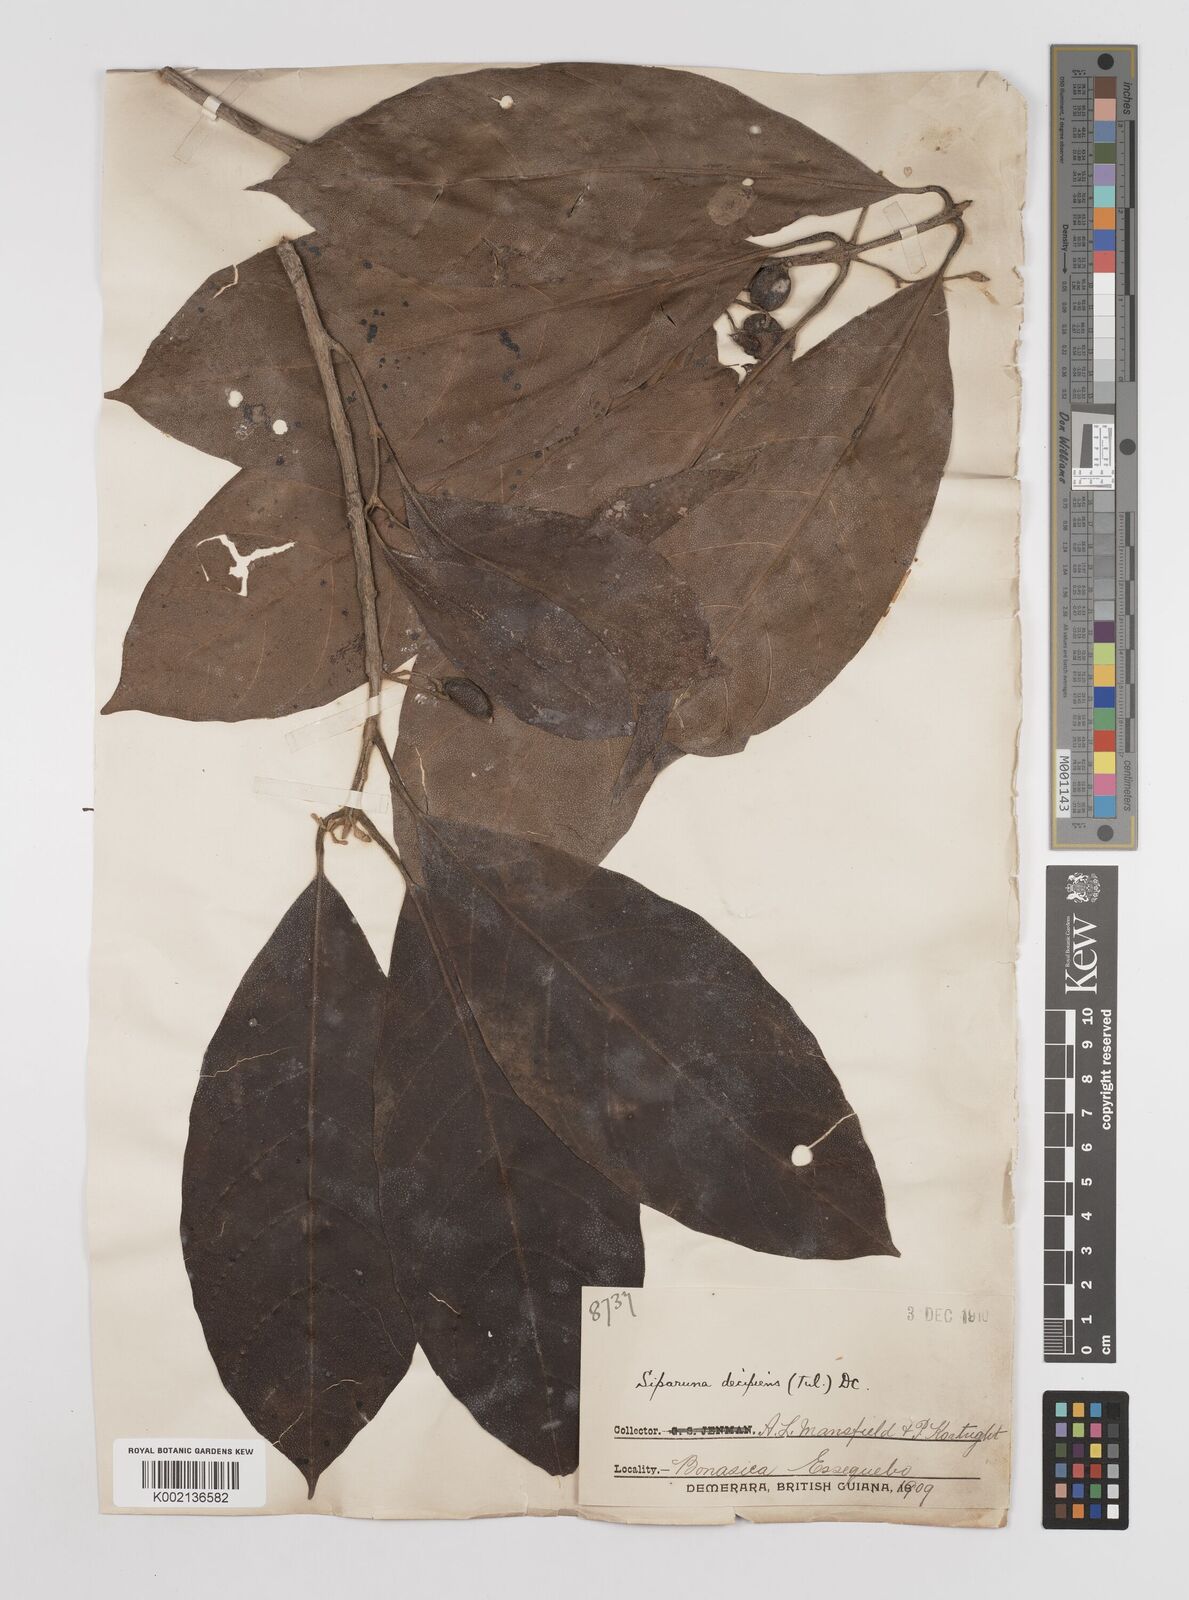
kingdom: Plantae
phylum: Tracheophyta
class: Magnoliopsida
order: Laurales
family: Siparunaceae
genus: Siparuna
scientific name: Siparuna decipiens
